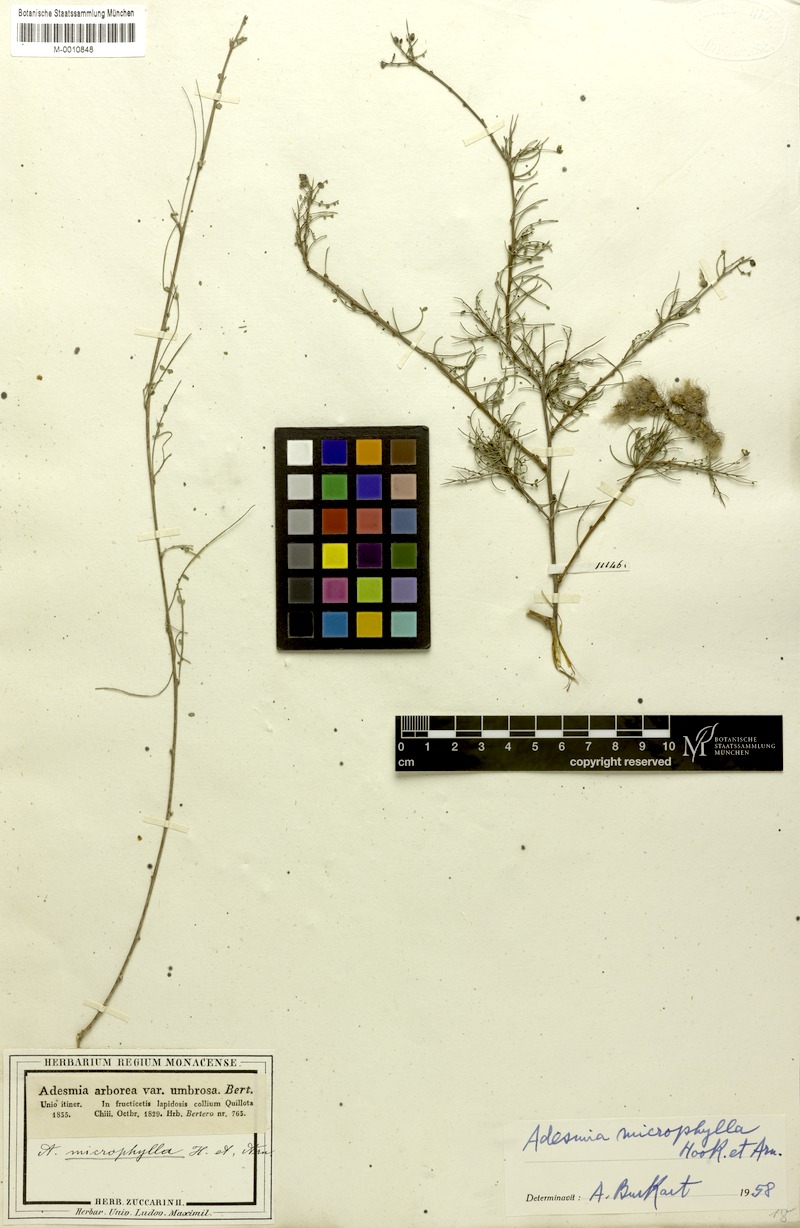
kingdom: Plantae
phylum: Tracheophyta
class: Magnoliopsida
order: Fabales
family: Fabaceae
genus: Adesmia
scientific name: Adesmia microphylla
